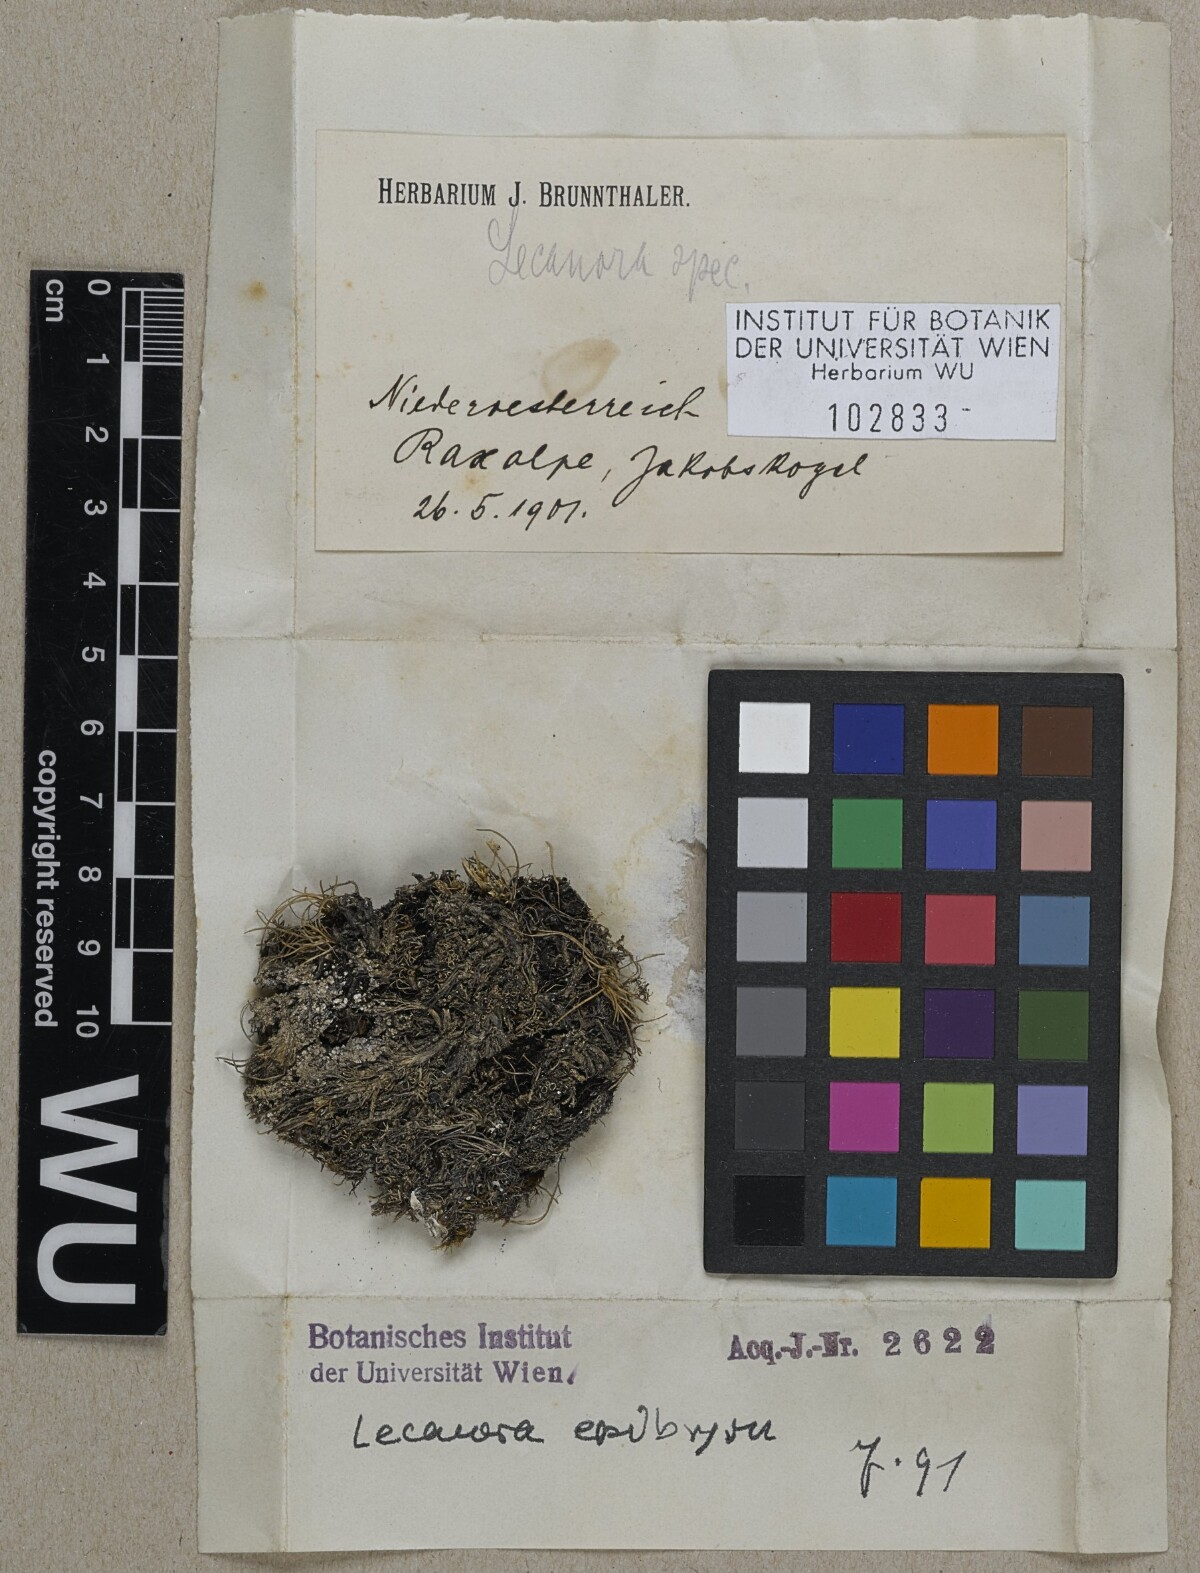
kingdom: Fungi
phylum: Ascomycota
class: Lecanoromycetes
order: Lecanorales
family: Lecanoraceae
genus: Lecanora
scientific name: Lecanora
